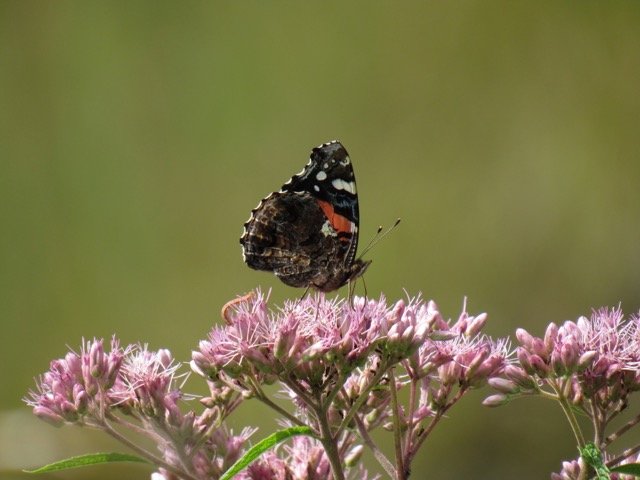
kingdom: Animalia
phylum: Arthropoda
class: Insecta
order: Lepidoptera
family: Nymphalidae
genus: Vanessa
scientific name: Vanessa atalanta
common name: Red Admiral
